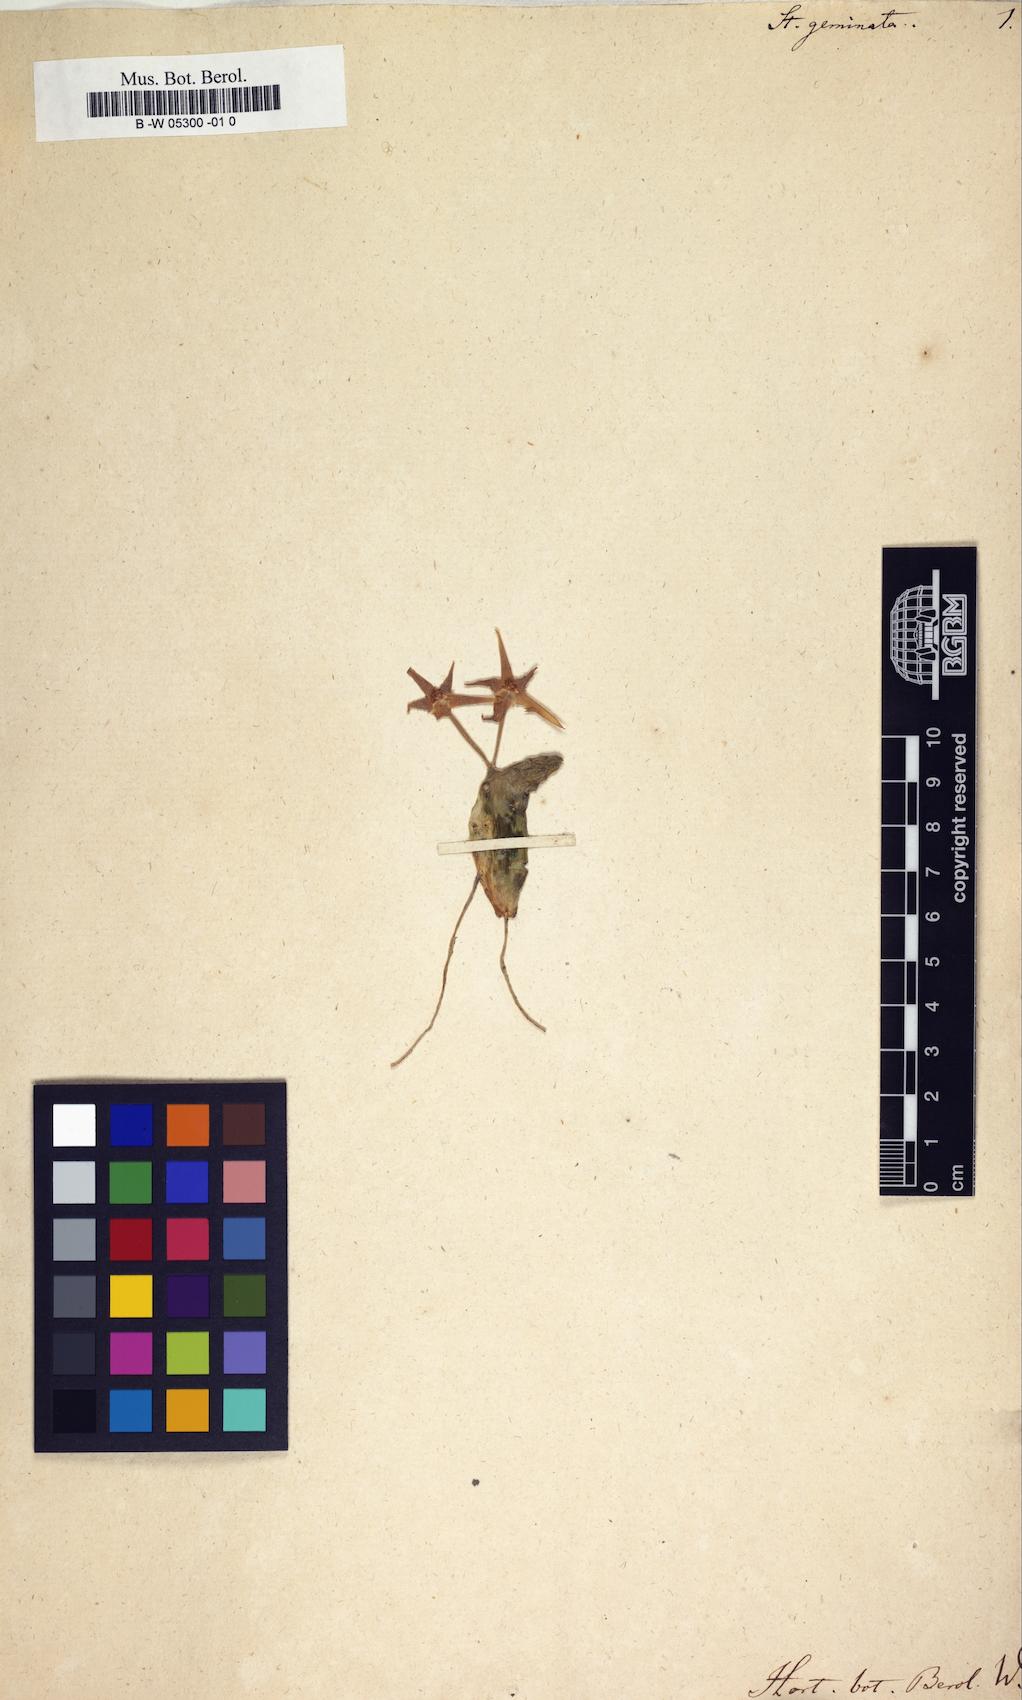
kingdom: Plantae
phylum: Tracheophyta
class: Magnoliopsida
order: Gentianales
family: Apocynaceae
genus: Ceropegia
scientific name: Ceropegia geminata
